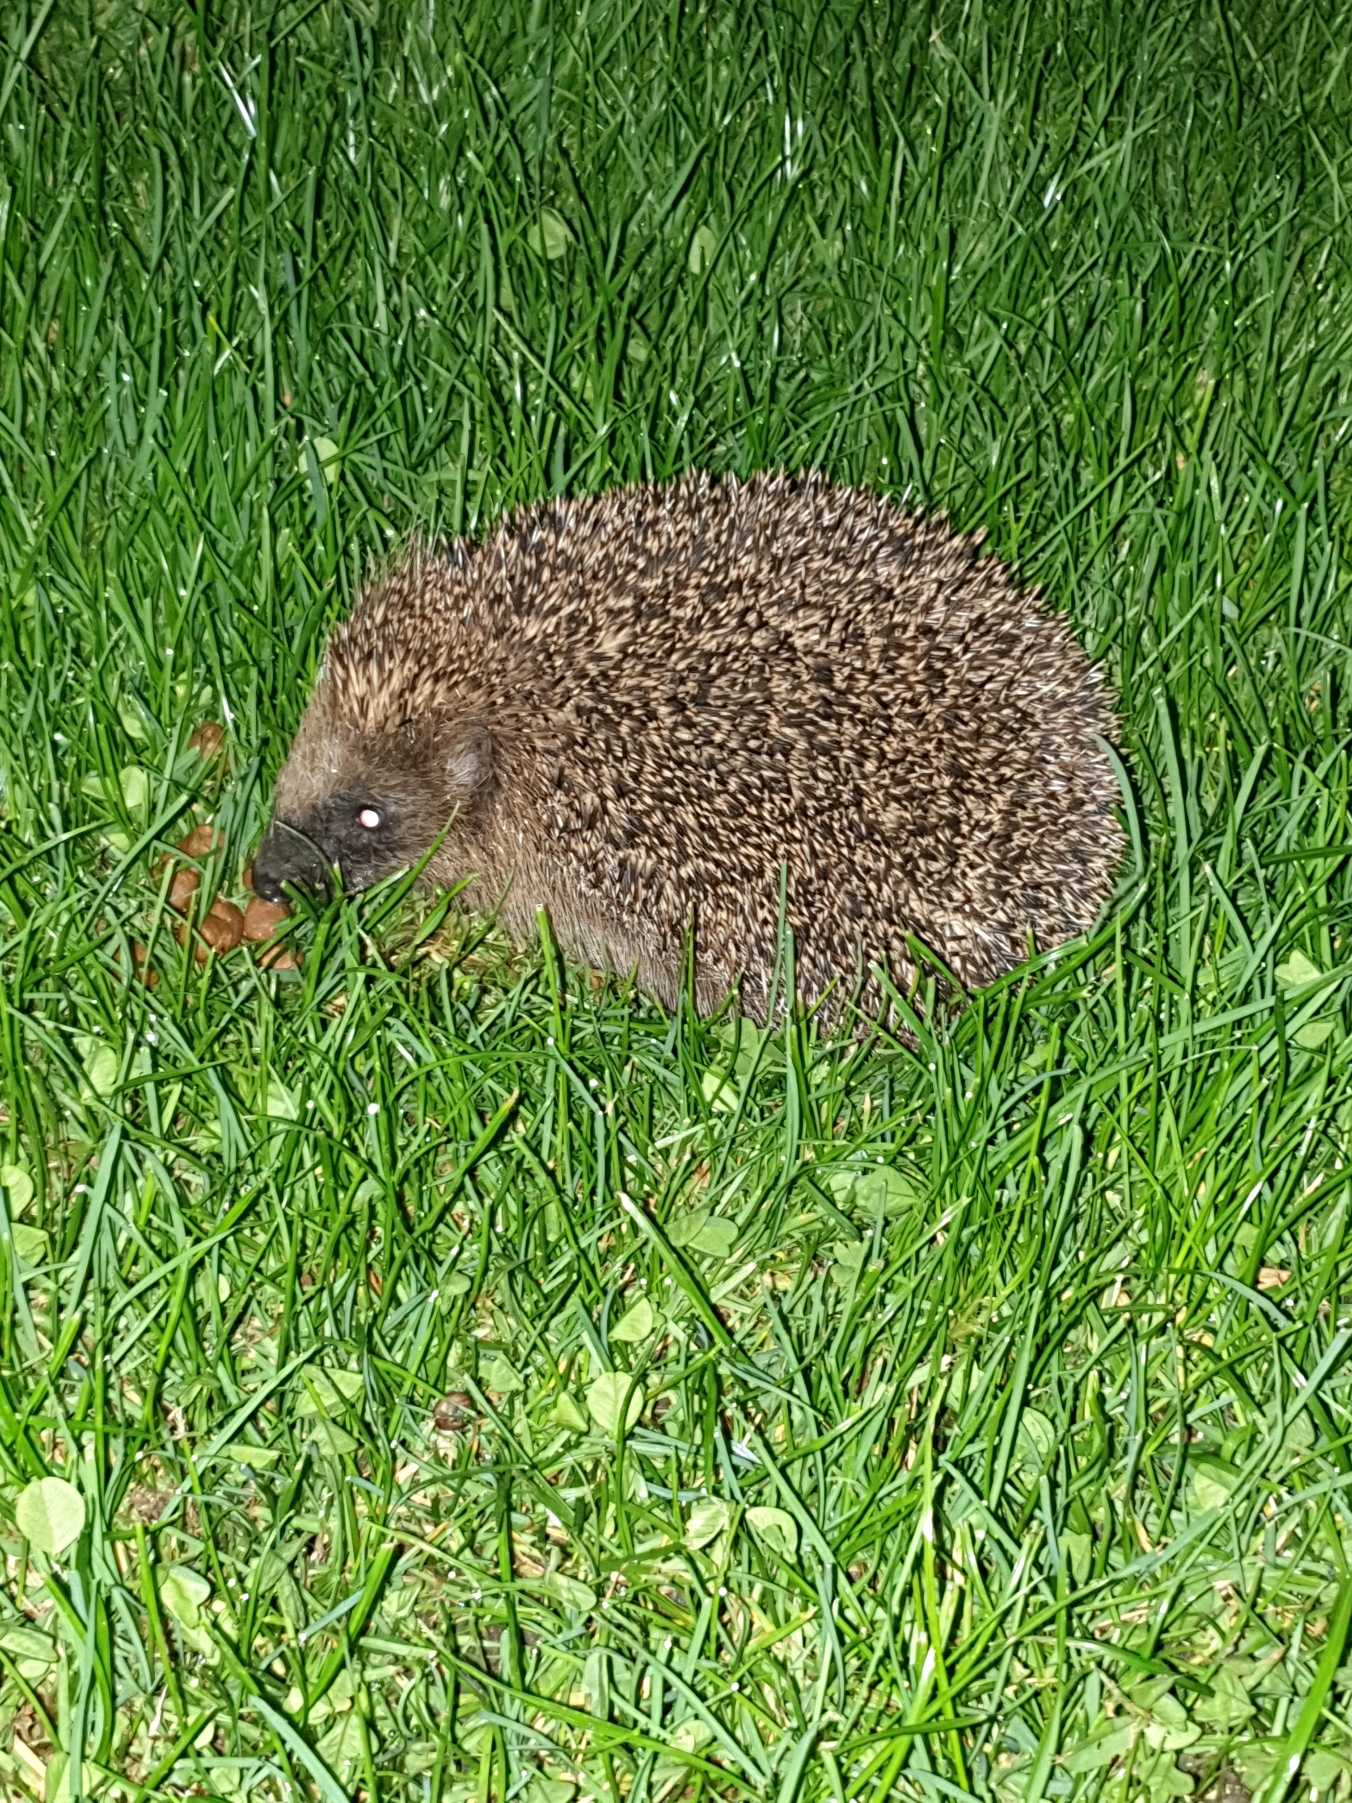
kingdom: Animalia
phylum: Chordata
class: Mammalia
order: Erinaceomorpha
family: Erinaceidae
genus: Erinaceus
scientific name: Erinaceus europaeus
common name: Pindsvin
